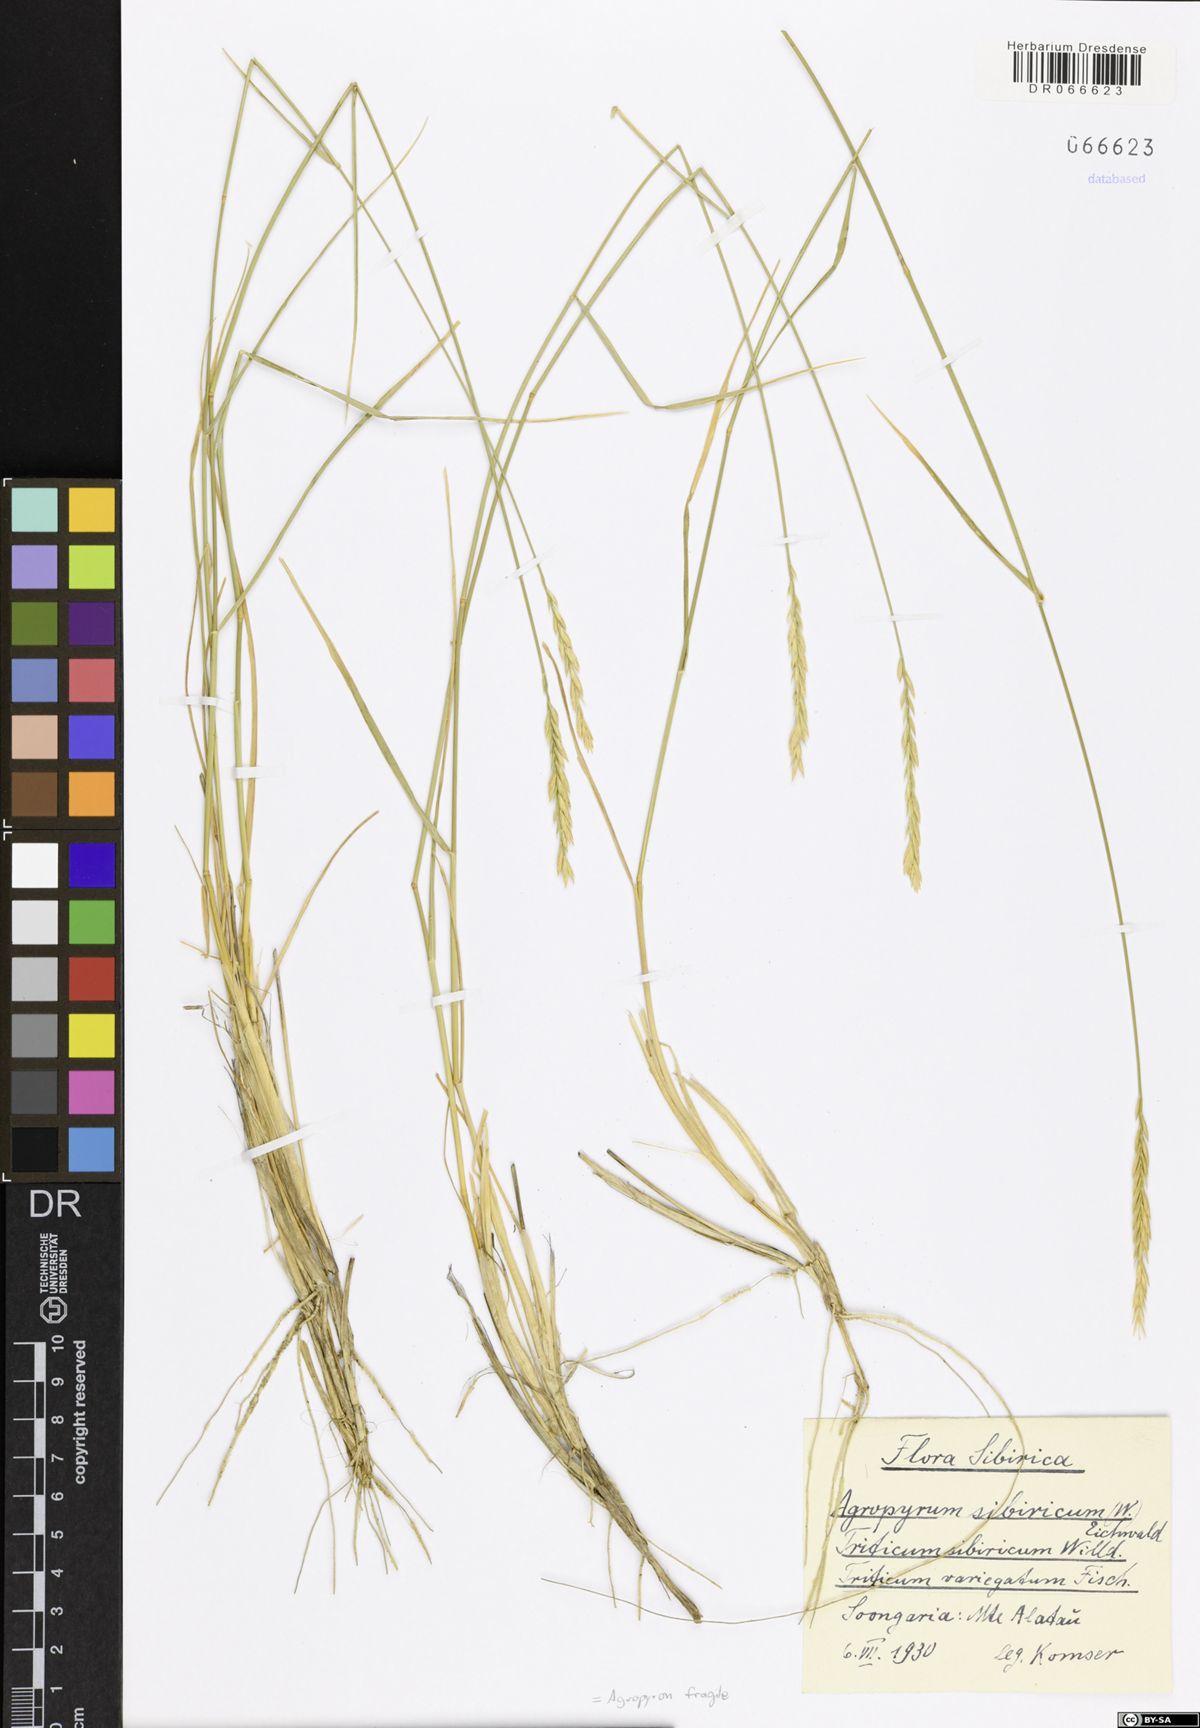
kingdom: Plantae
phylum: Tracheophyta
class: Liliopsida
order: Poales
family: Poaceae
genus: Agropyron
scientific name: Agropyron fragile
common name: Siberian wheatgrass
